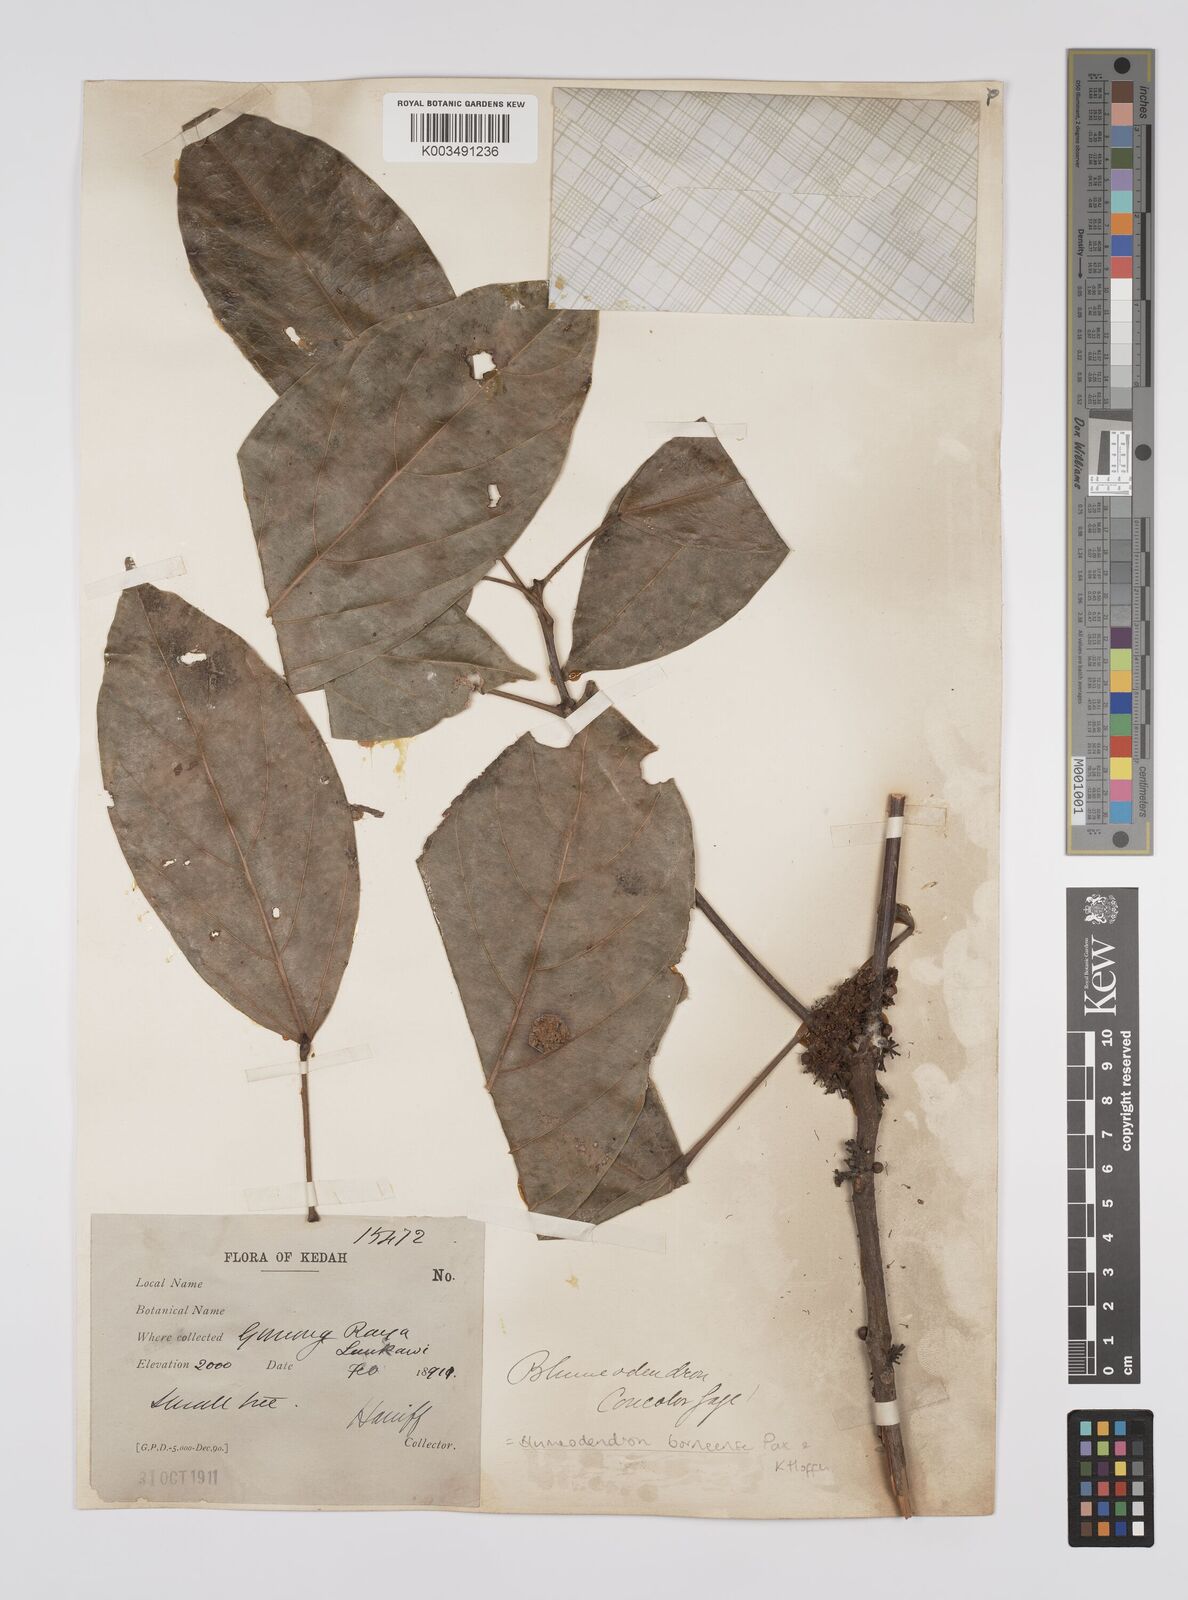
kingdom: Plantae
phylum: Tracheophyta
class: Magnoliopsida
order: Malpighiales
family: Euphorbiaceae
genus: Blumeodendron
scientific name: Blumeodendron borneense
